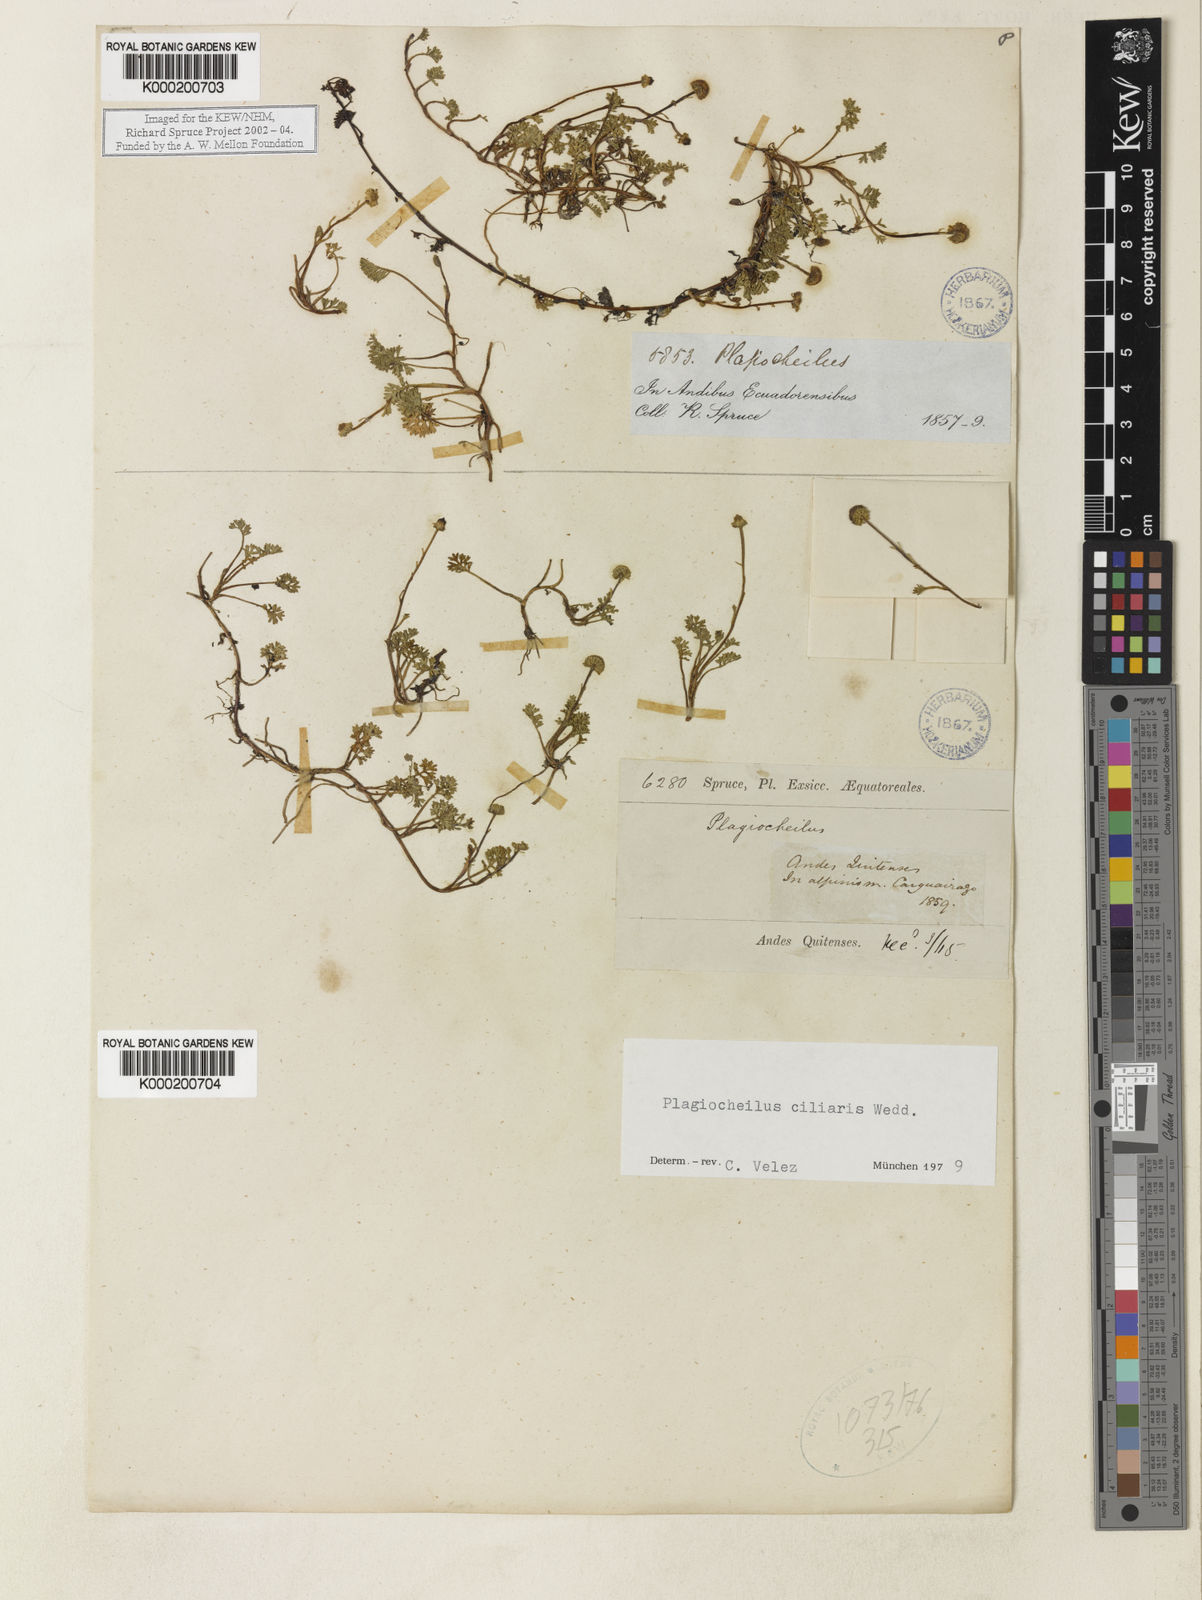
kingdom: Plantae
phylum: Tracheophyta
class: Magnoliopsida
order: Asterales
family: Asteraceae
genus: Plagiocheilus
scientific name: Plagiocheilus
